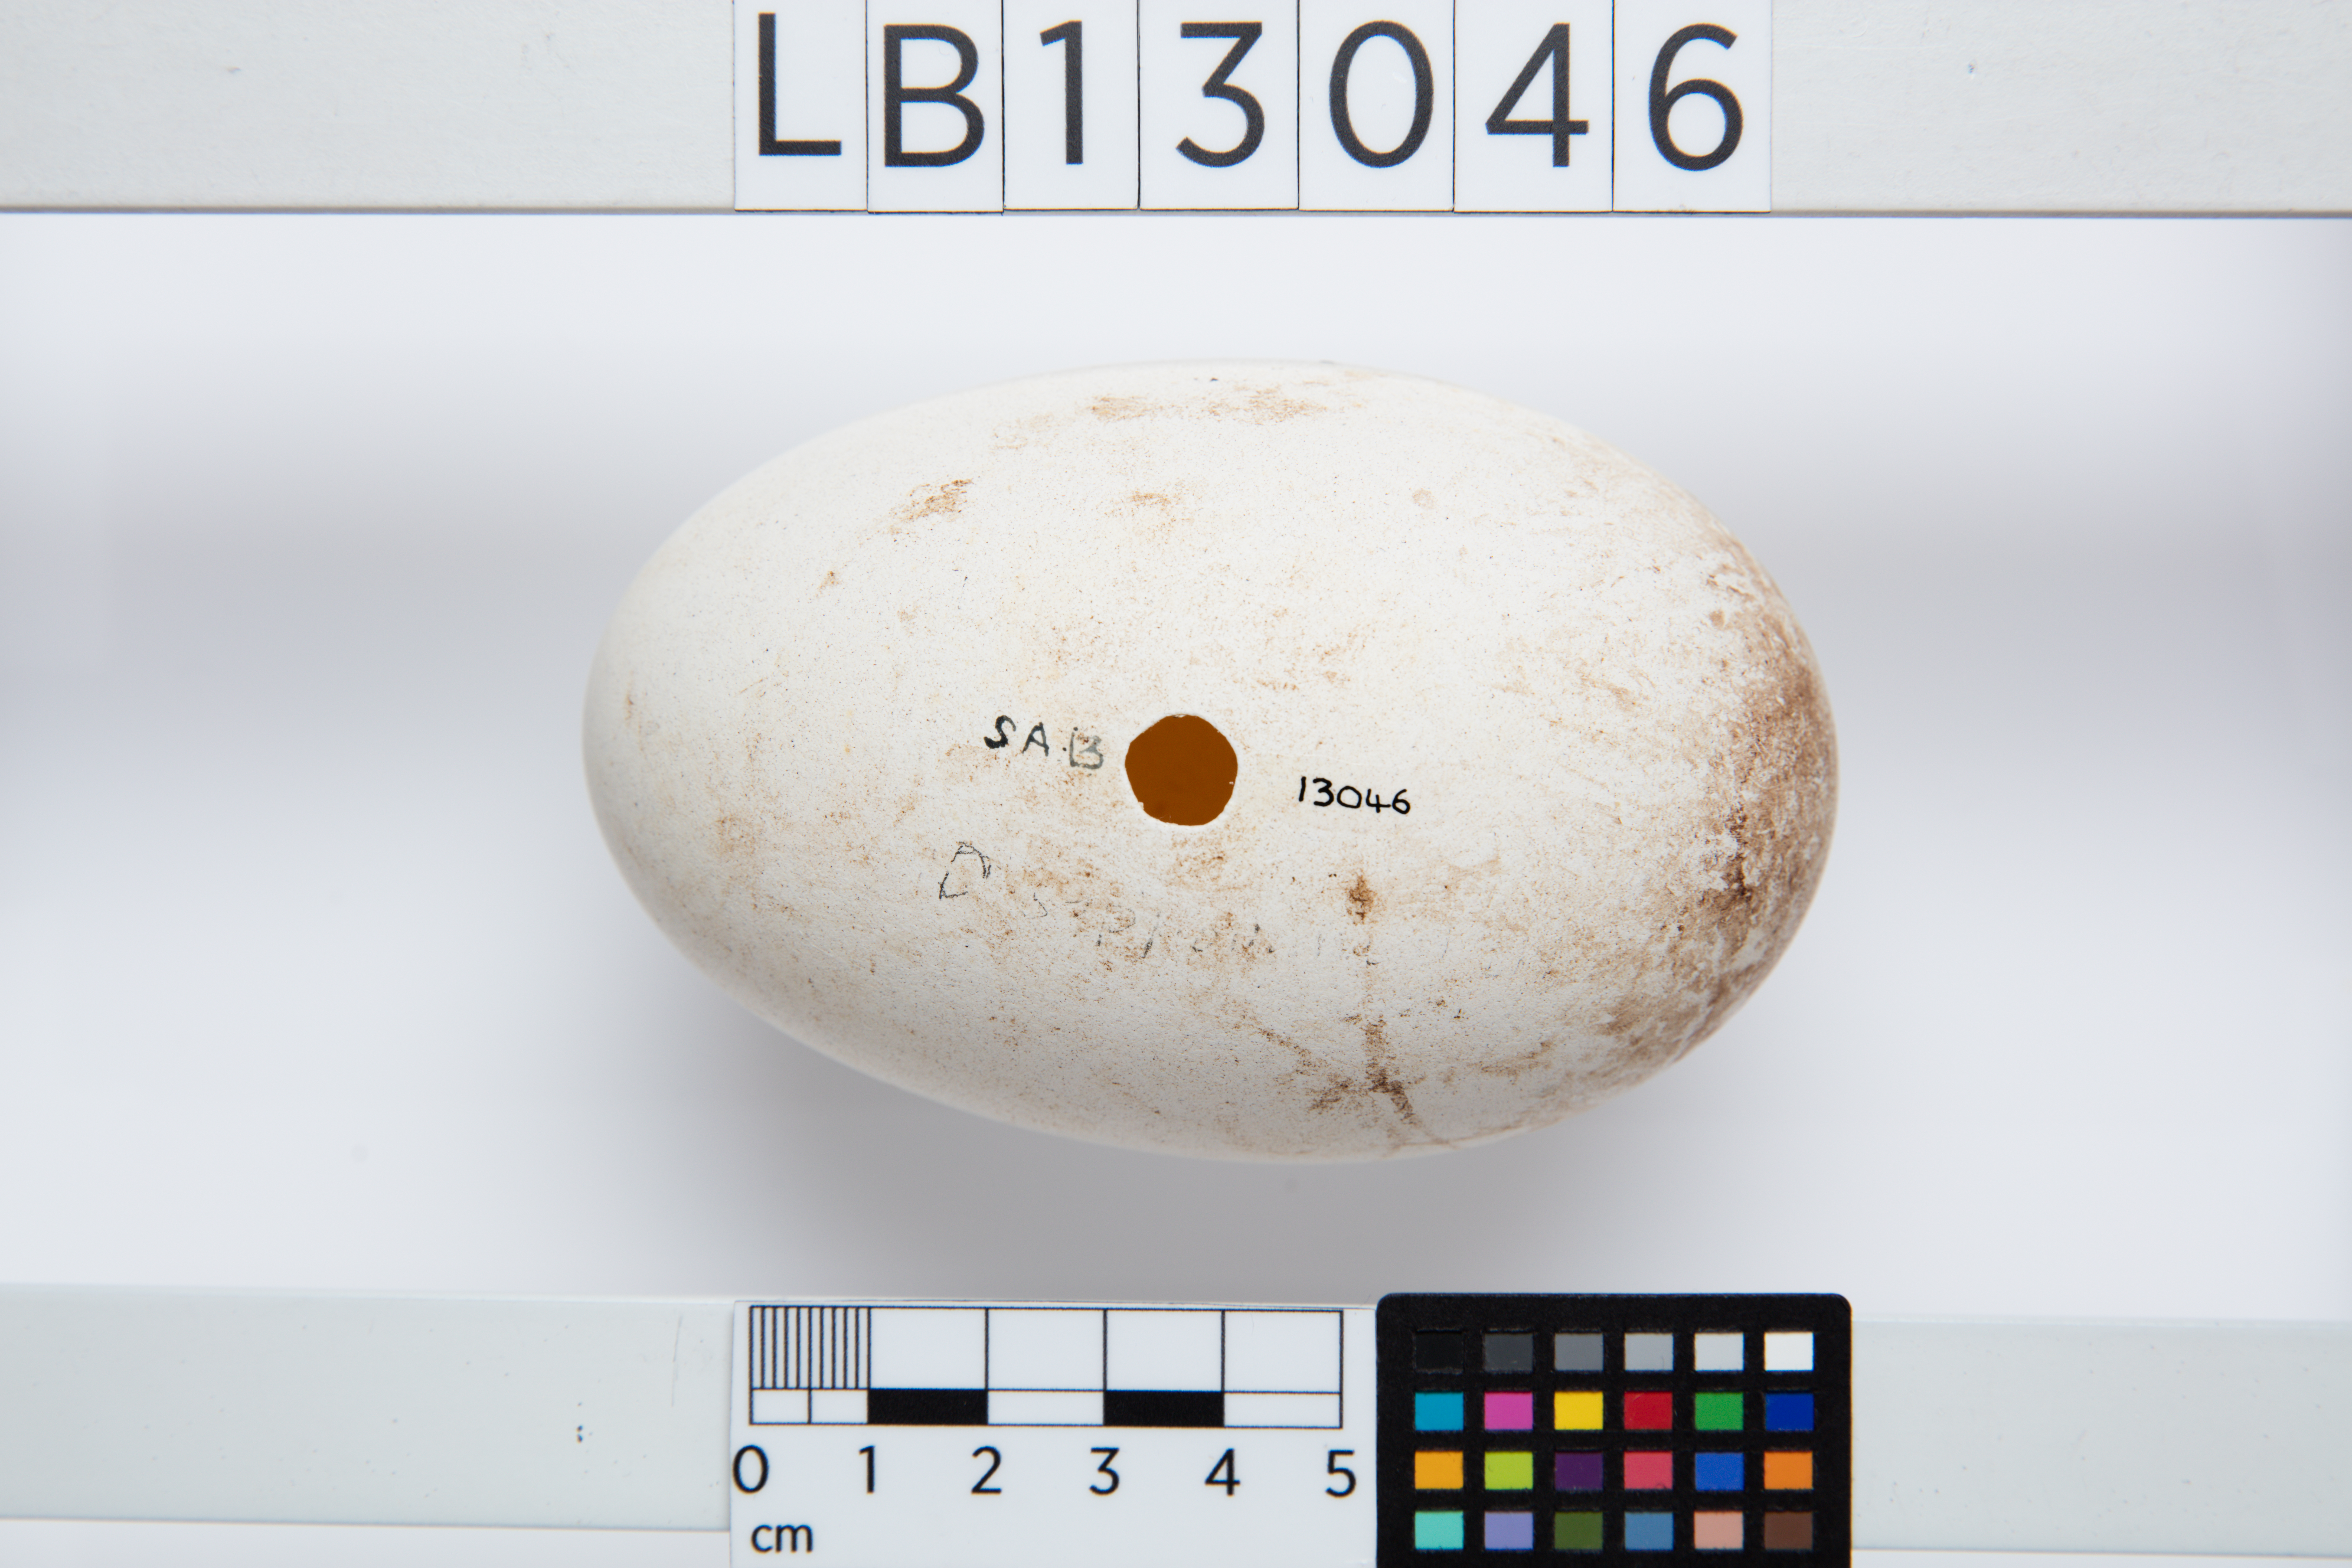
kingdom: Animalia
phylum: Chordata
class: Aves
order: Procellariiformes
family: Diomedeidae
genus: Thalassarche
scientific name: Thalassarche cauta
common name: Shy albatross
